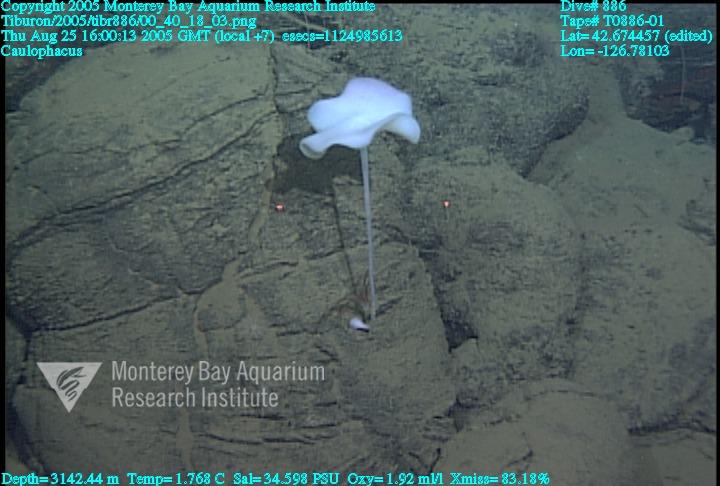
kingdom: Animalia
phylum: Porifera
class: Hexactinellida
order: Lyssacinosida
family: Rossellidae
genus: Caulophacus
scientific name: Caulophacus
